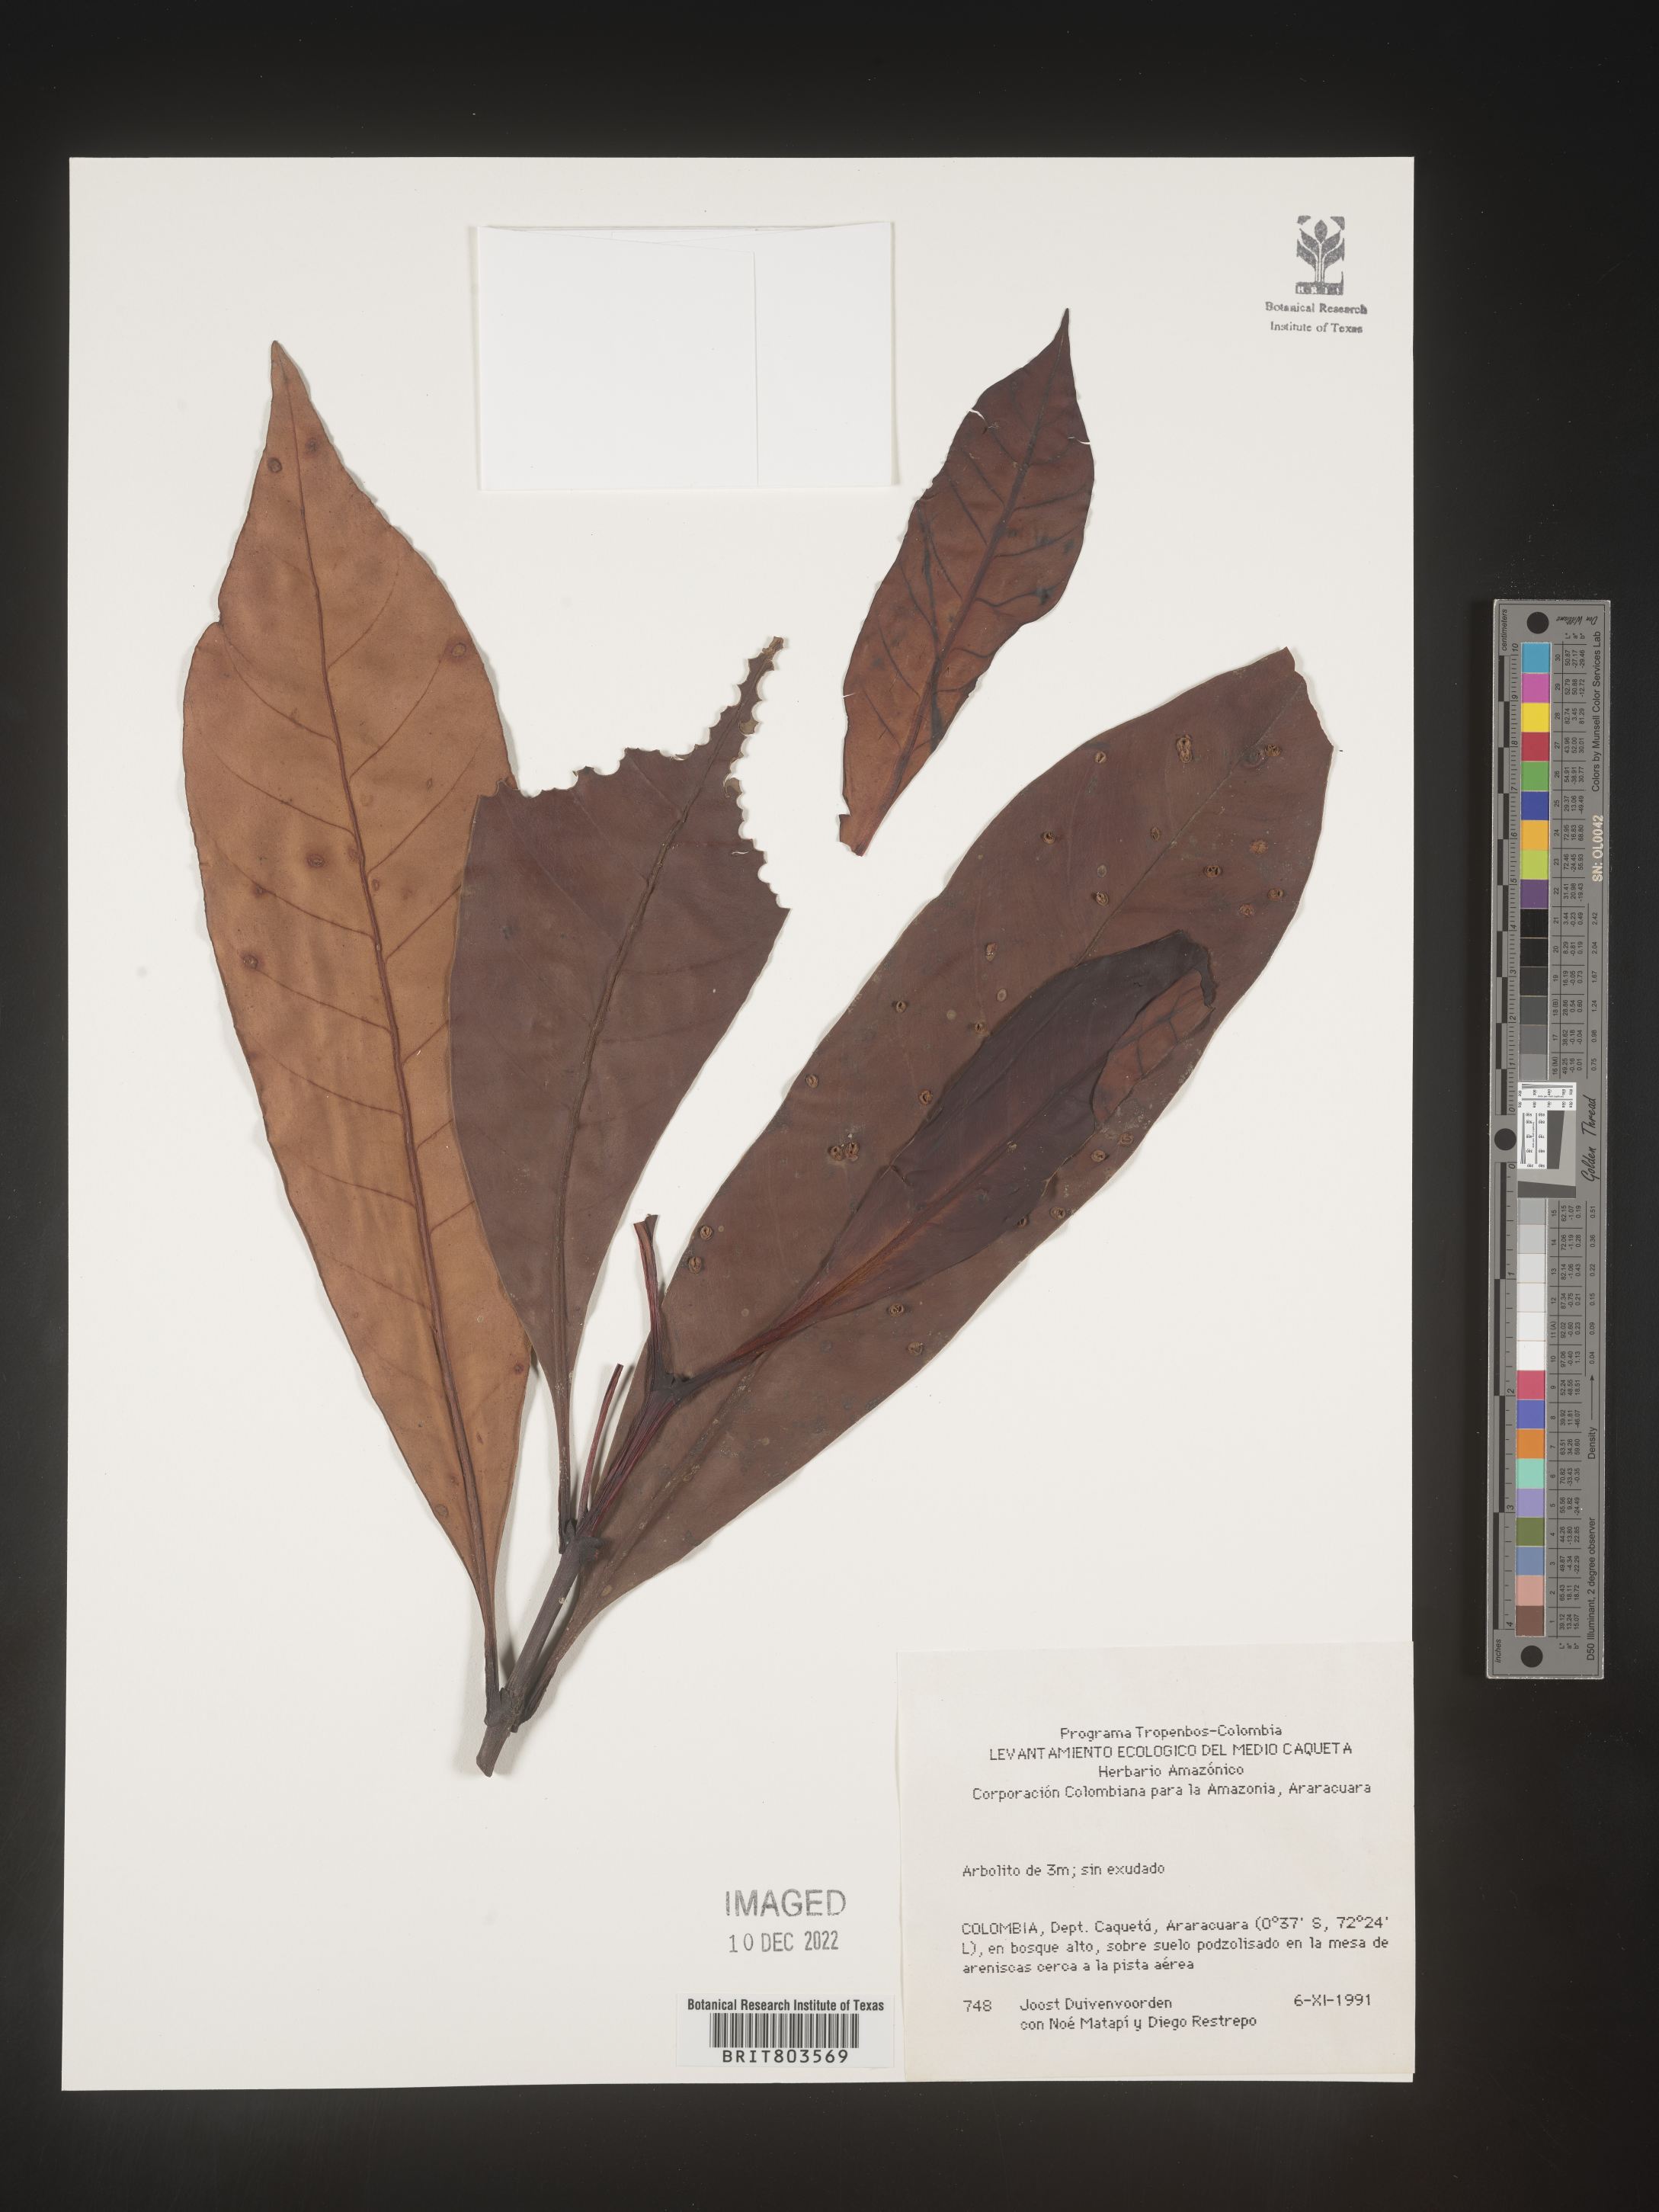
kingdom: Plantae
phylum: Tracheophyta
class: Magnoliopsida
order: Malpighiales
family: Clusiaceae
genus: Tovomita
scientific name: Tovomita
